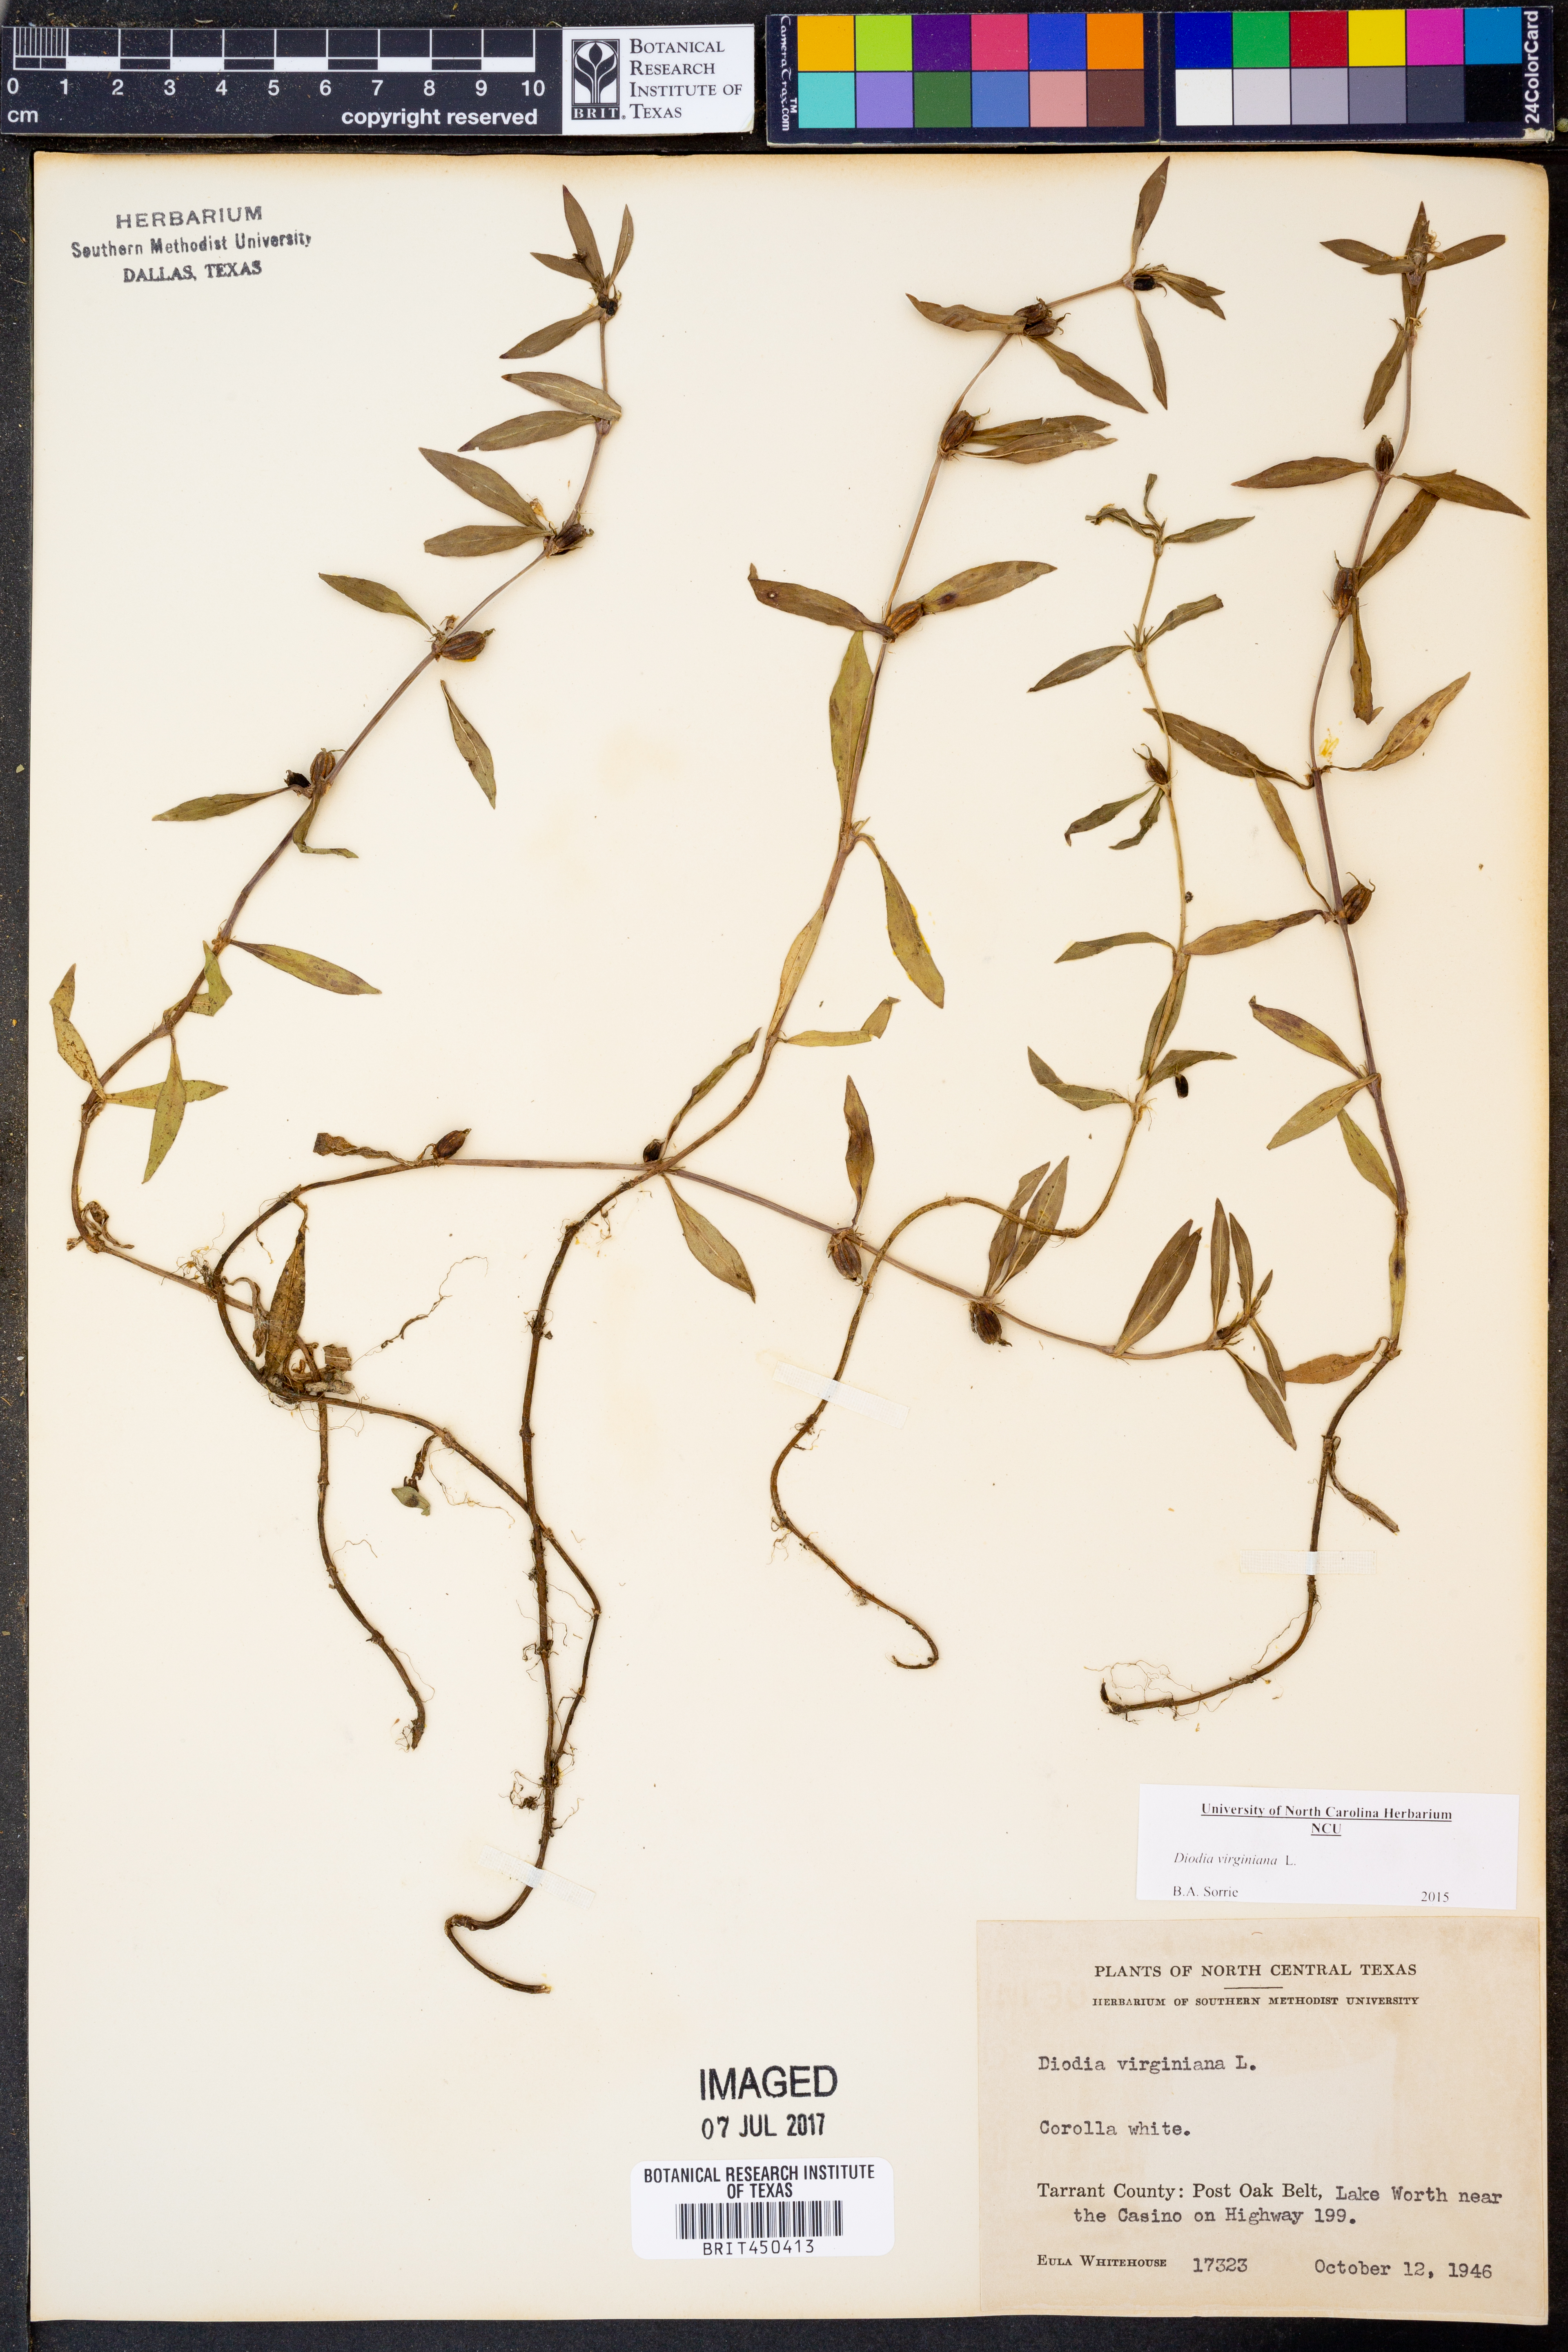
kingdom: Plantae
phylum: Tracheophyta
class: Magnoliopsida
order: Gentianales
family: Rubiaceae
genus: Diodia
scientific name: Diodia virginiana
